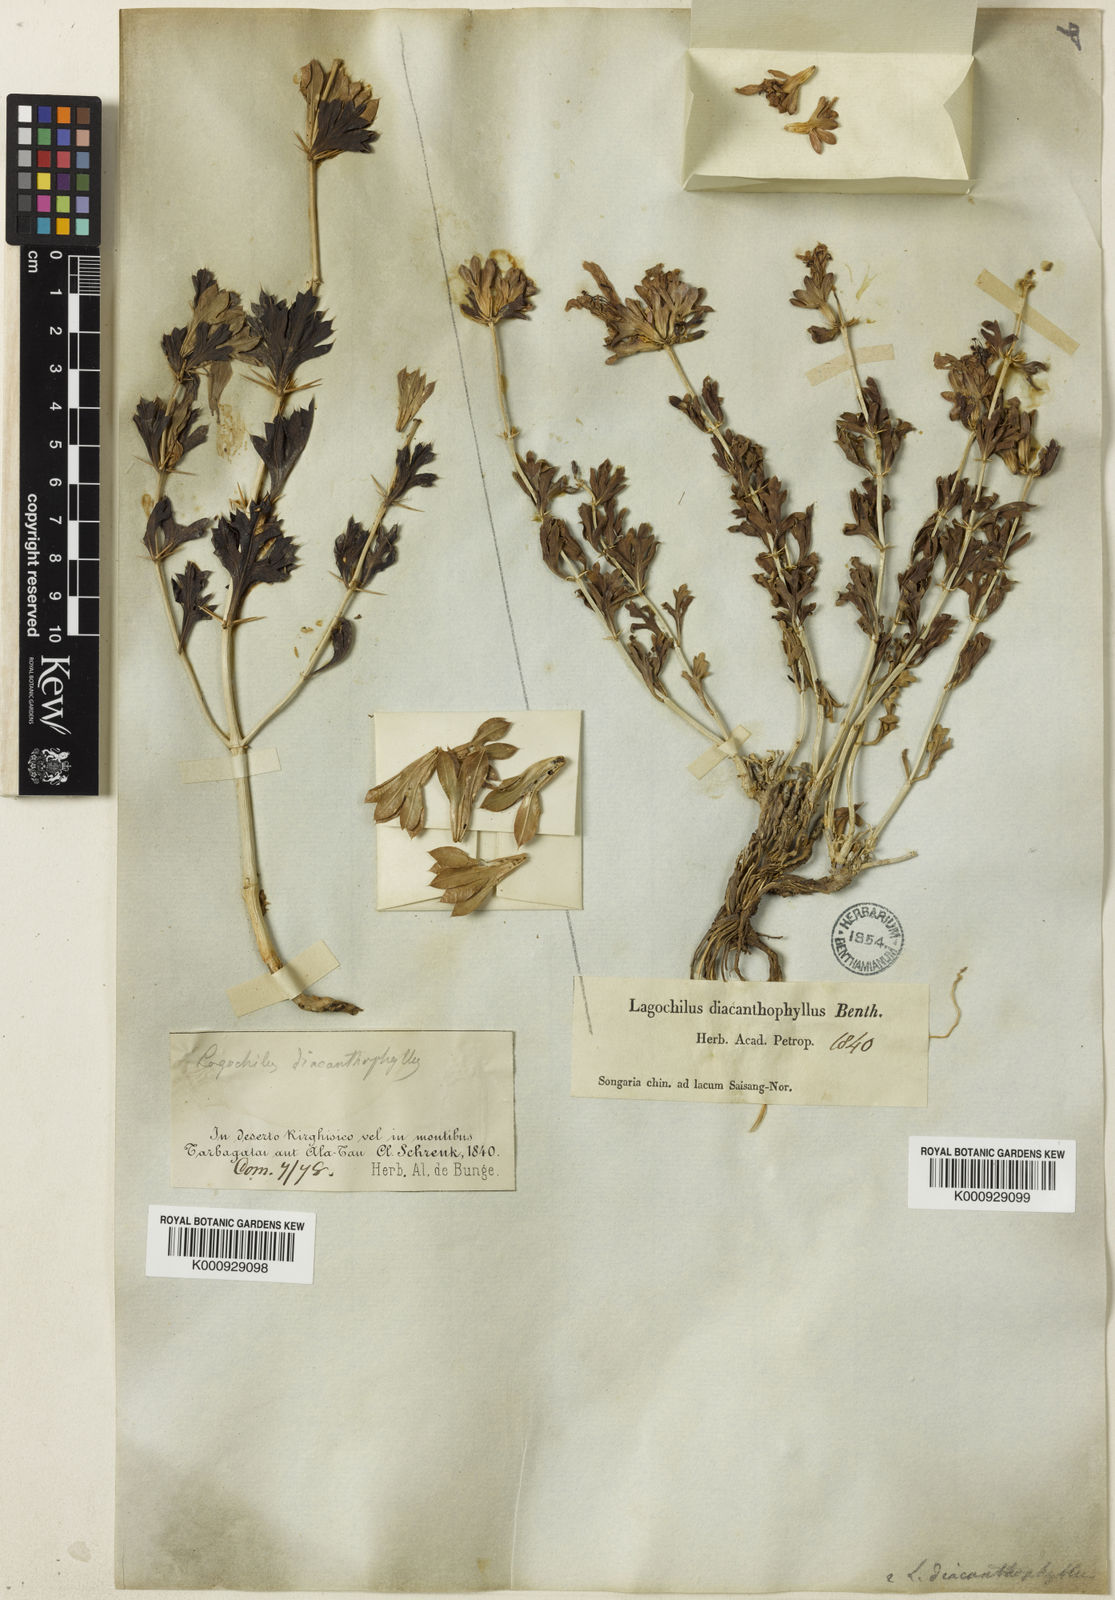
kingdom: Plantae
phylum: Tracheophyta
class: Magnoliopsida
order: Lamiales
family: Lamiaceae
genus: Lagochilus
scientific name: Lagochilus diacanthophyllus
